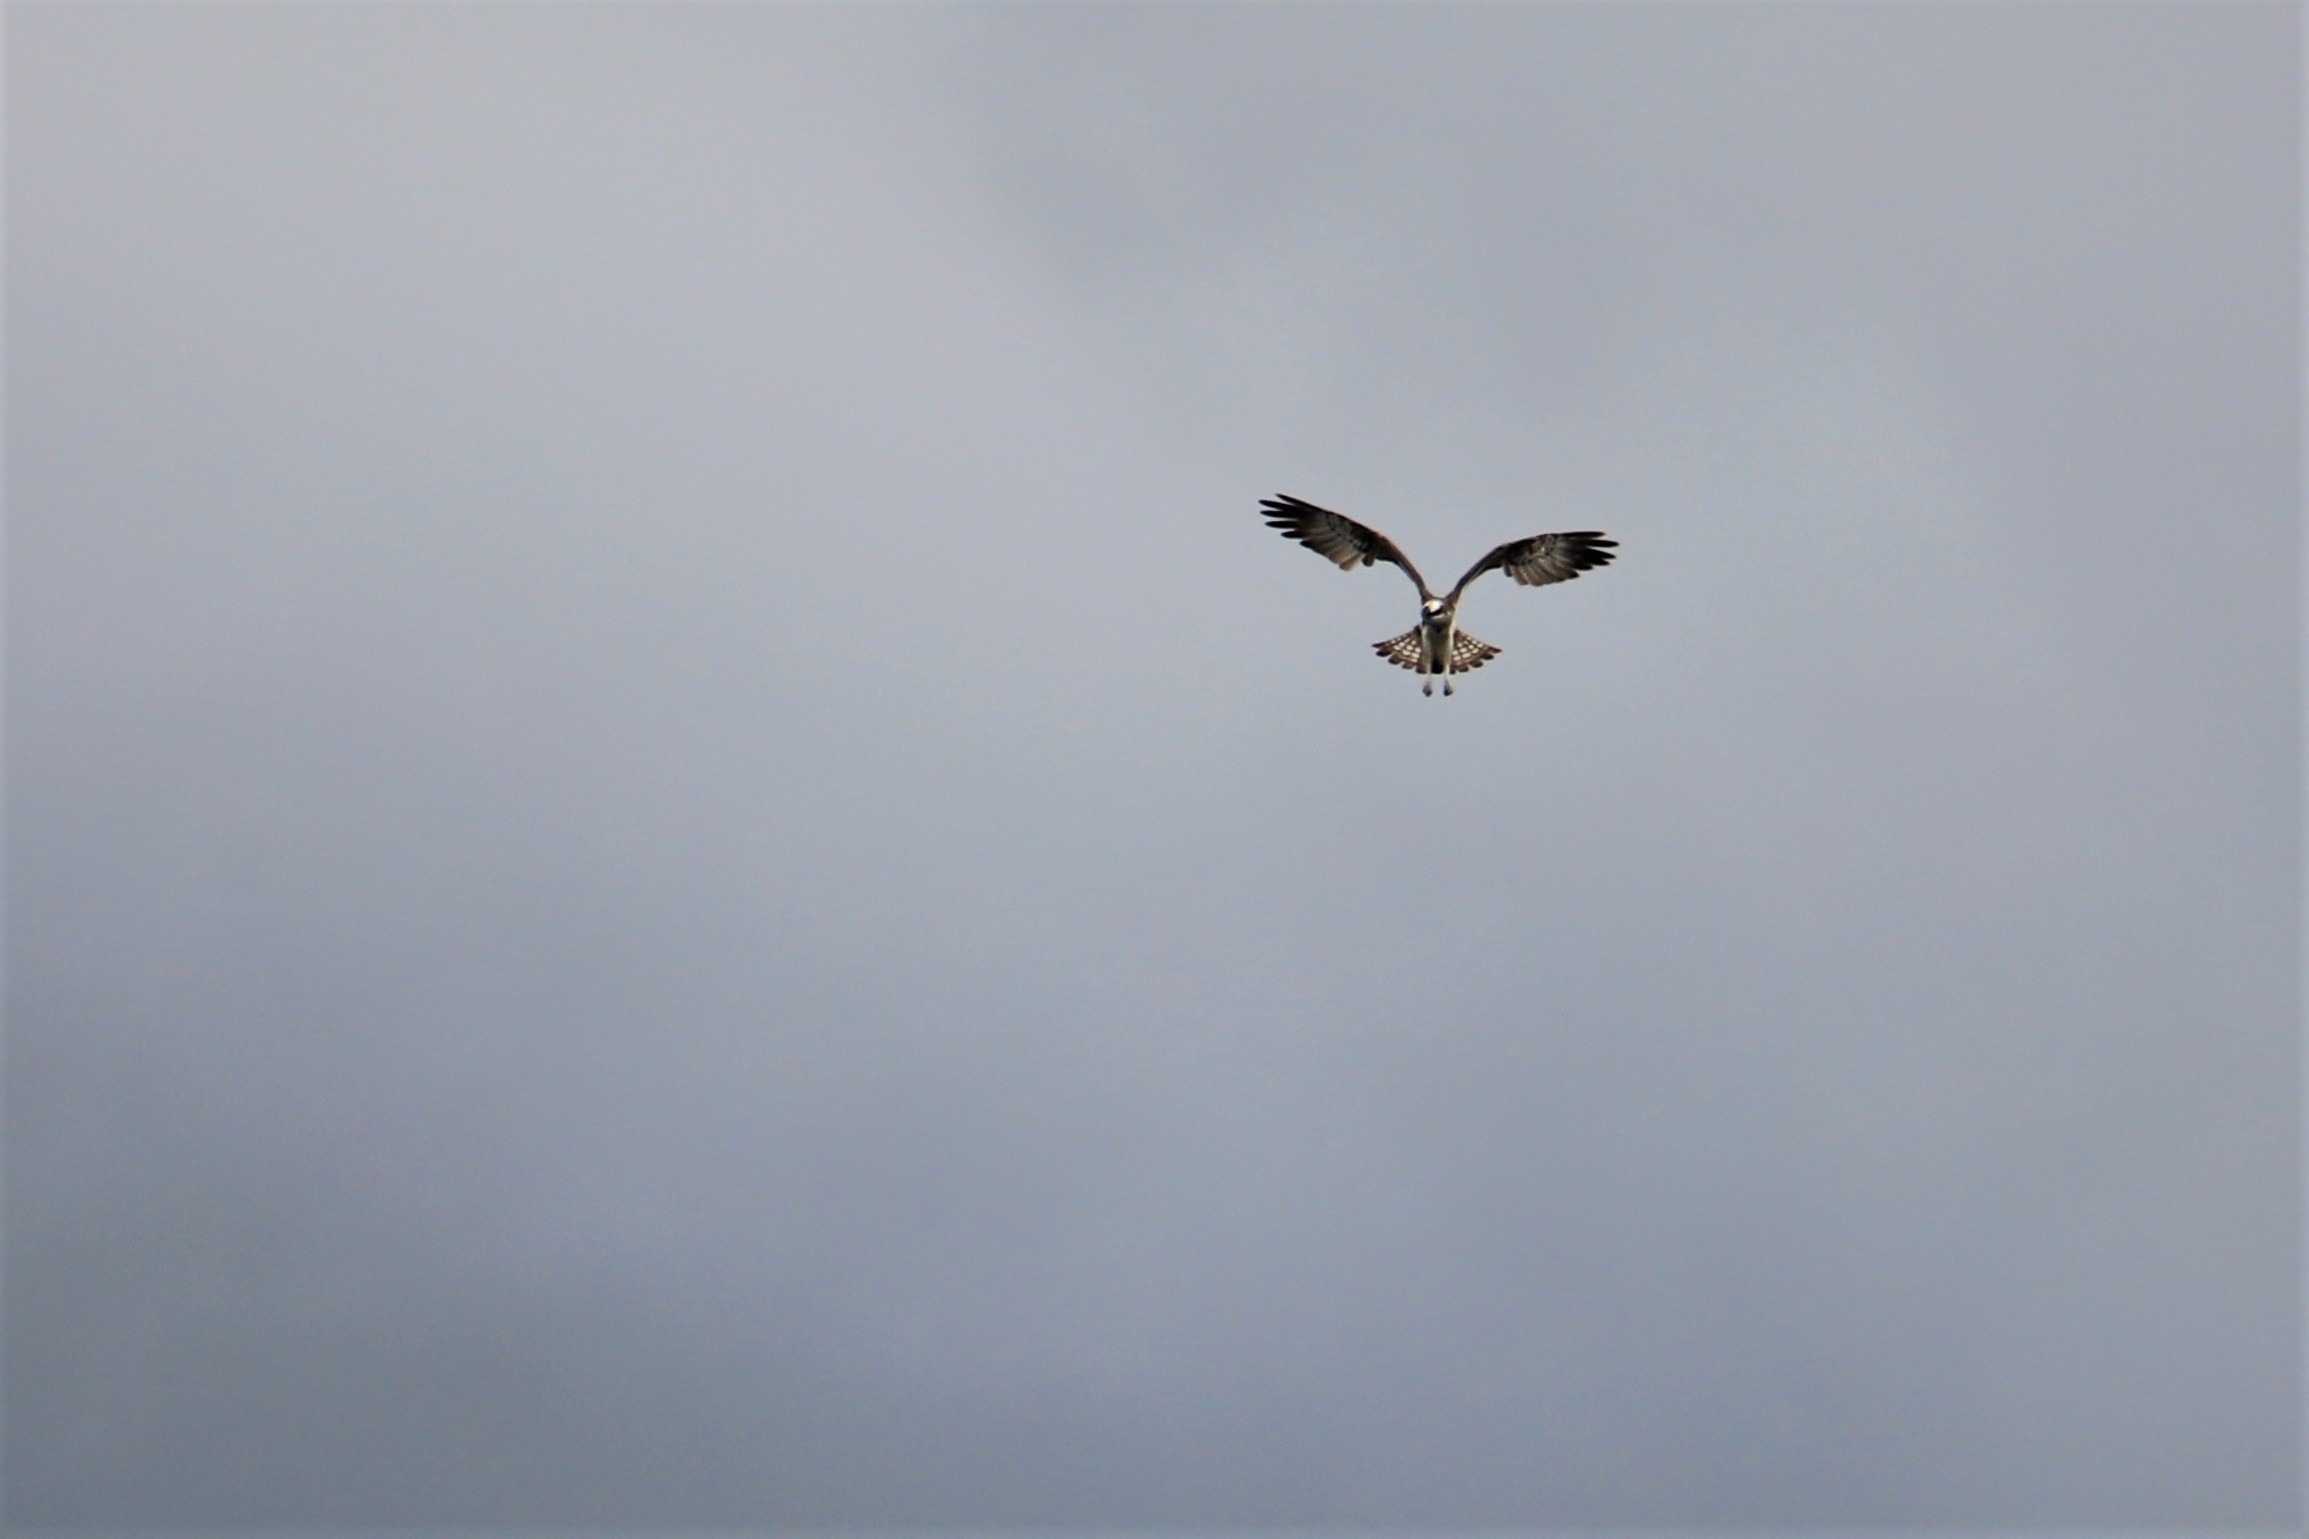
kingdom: Animalia
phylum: Chordata
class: Aves
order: Accipitriformes
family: Pandionidae
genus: Pandion
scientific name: Pandion haliaetus
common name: Fiskeørn
